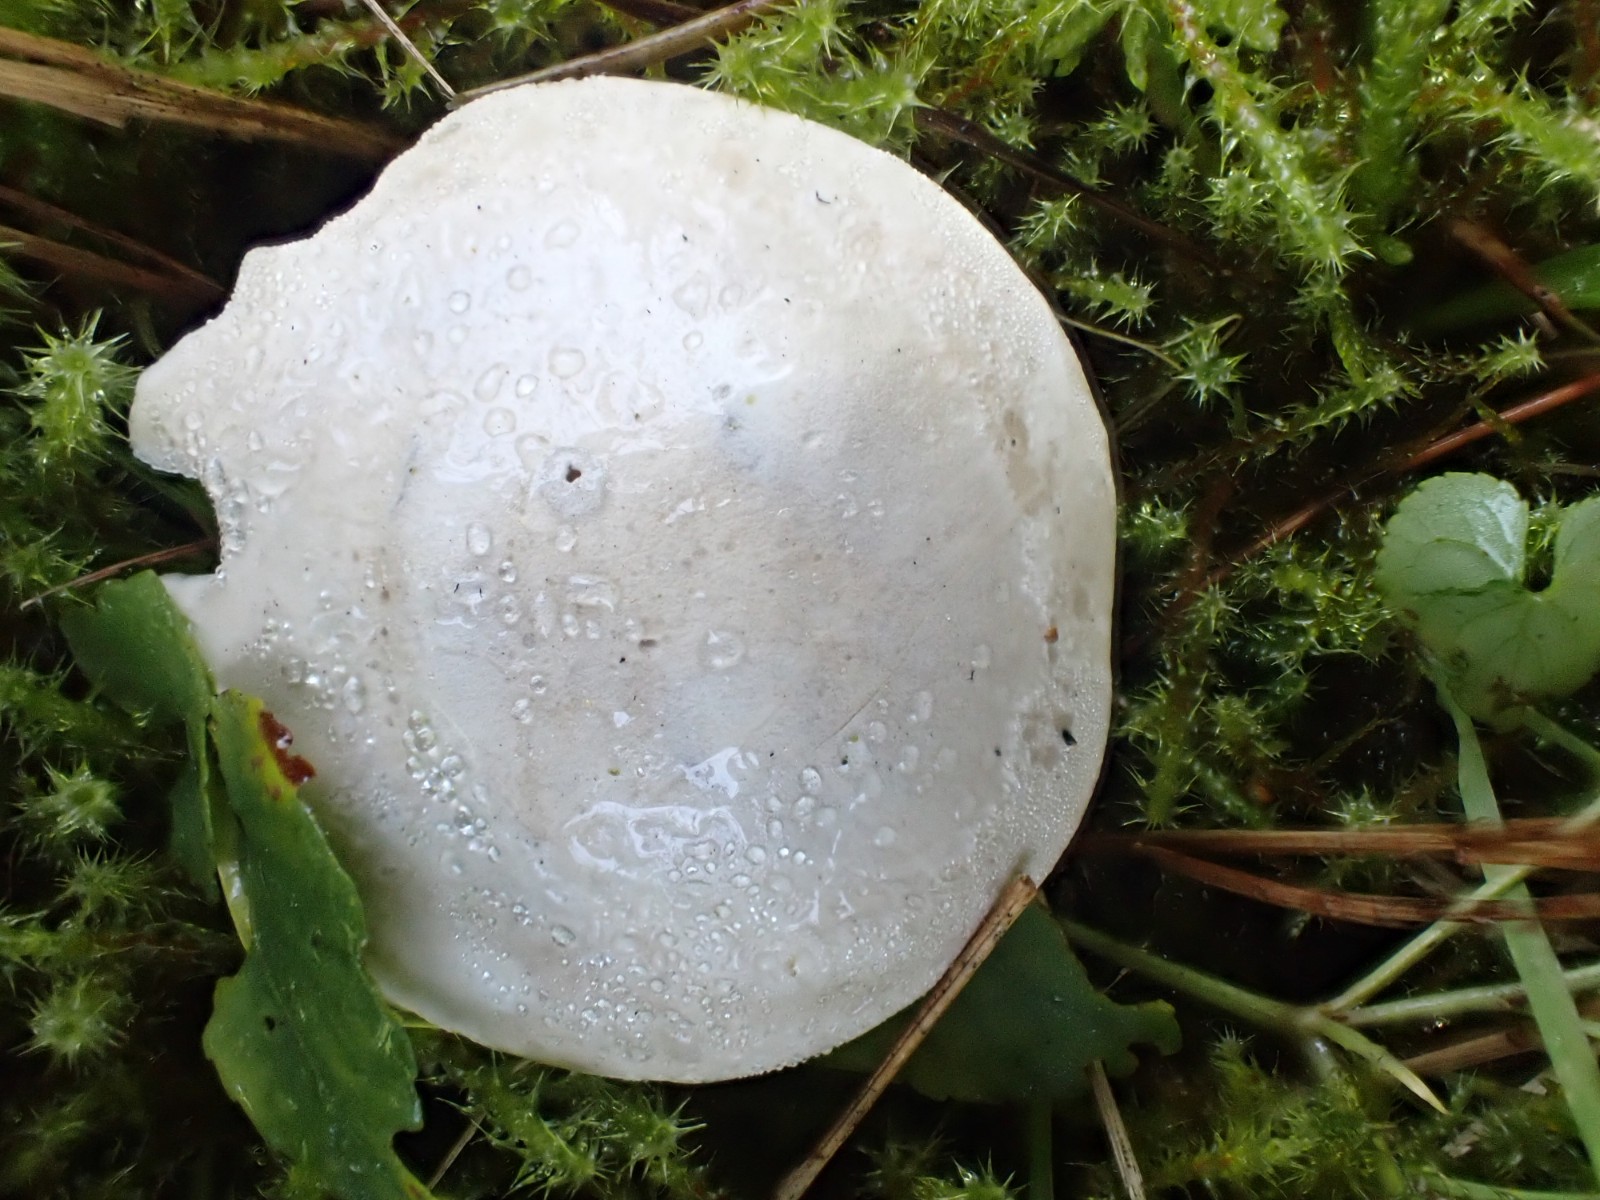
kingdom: Fungi
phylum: Basidiomycota
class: Agaricomycetes
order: Agaricales
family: Entolomataceae
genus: Clitopilus
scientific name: Clitopilus prunulus
